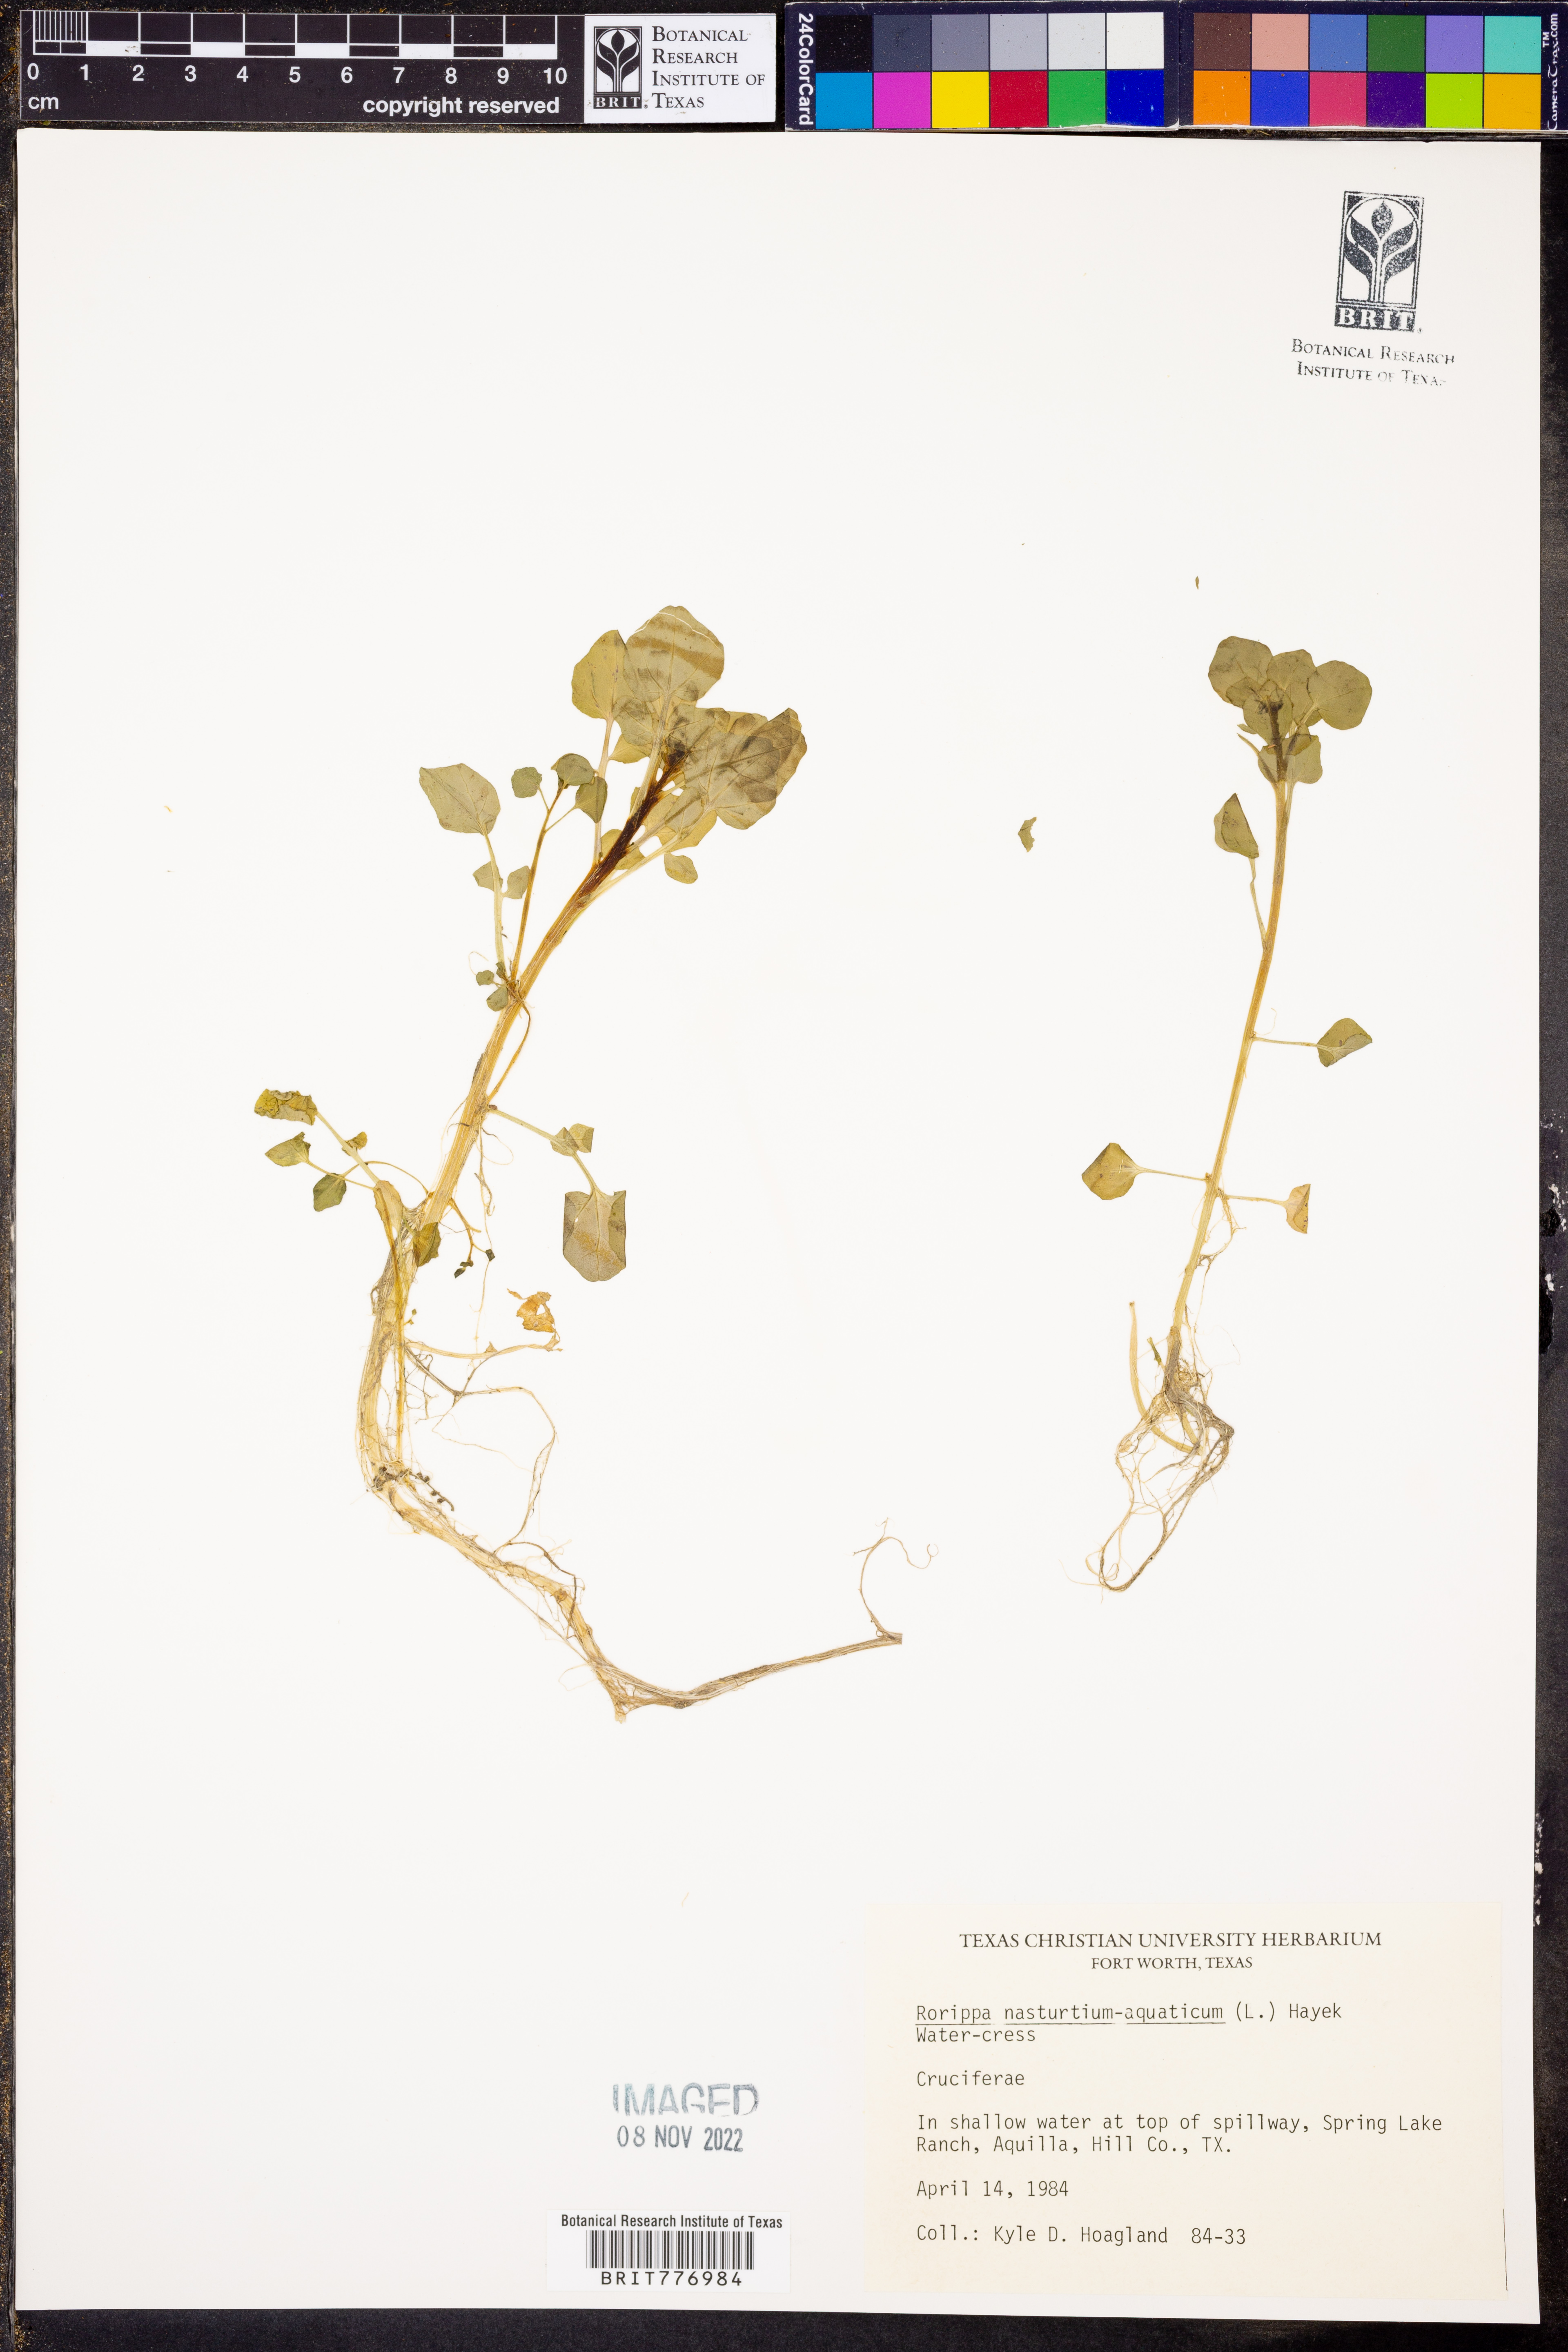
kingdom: Plantae
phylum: Tracheophyta
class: Magnoliopsida
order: Brassicales
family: Brassicaceae
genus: Nasturtium
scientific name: Nasturtium officinale
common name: Watercress
